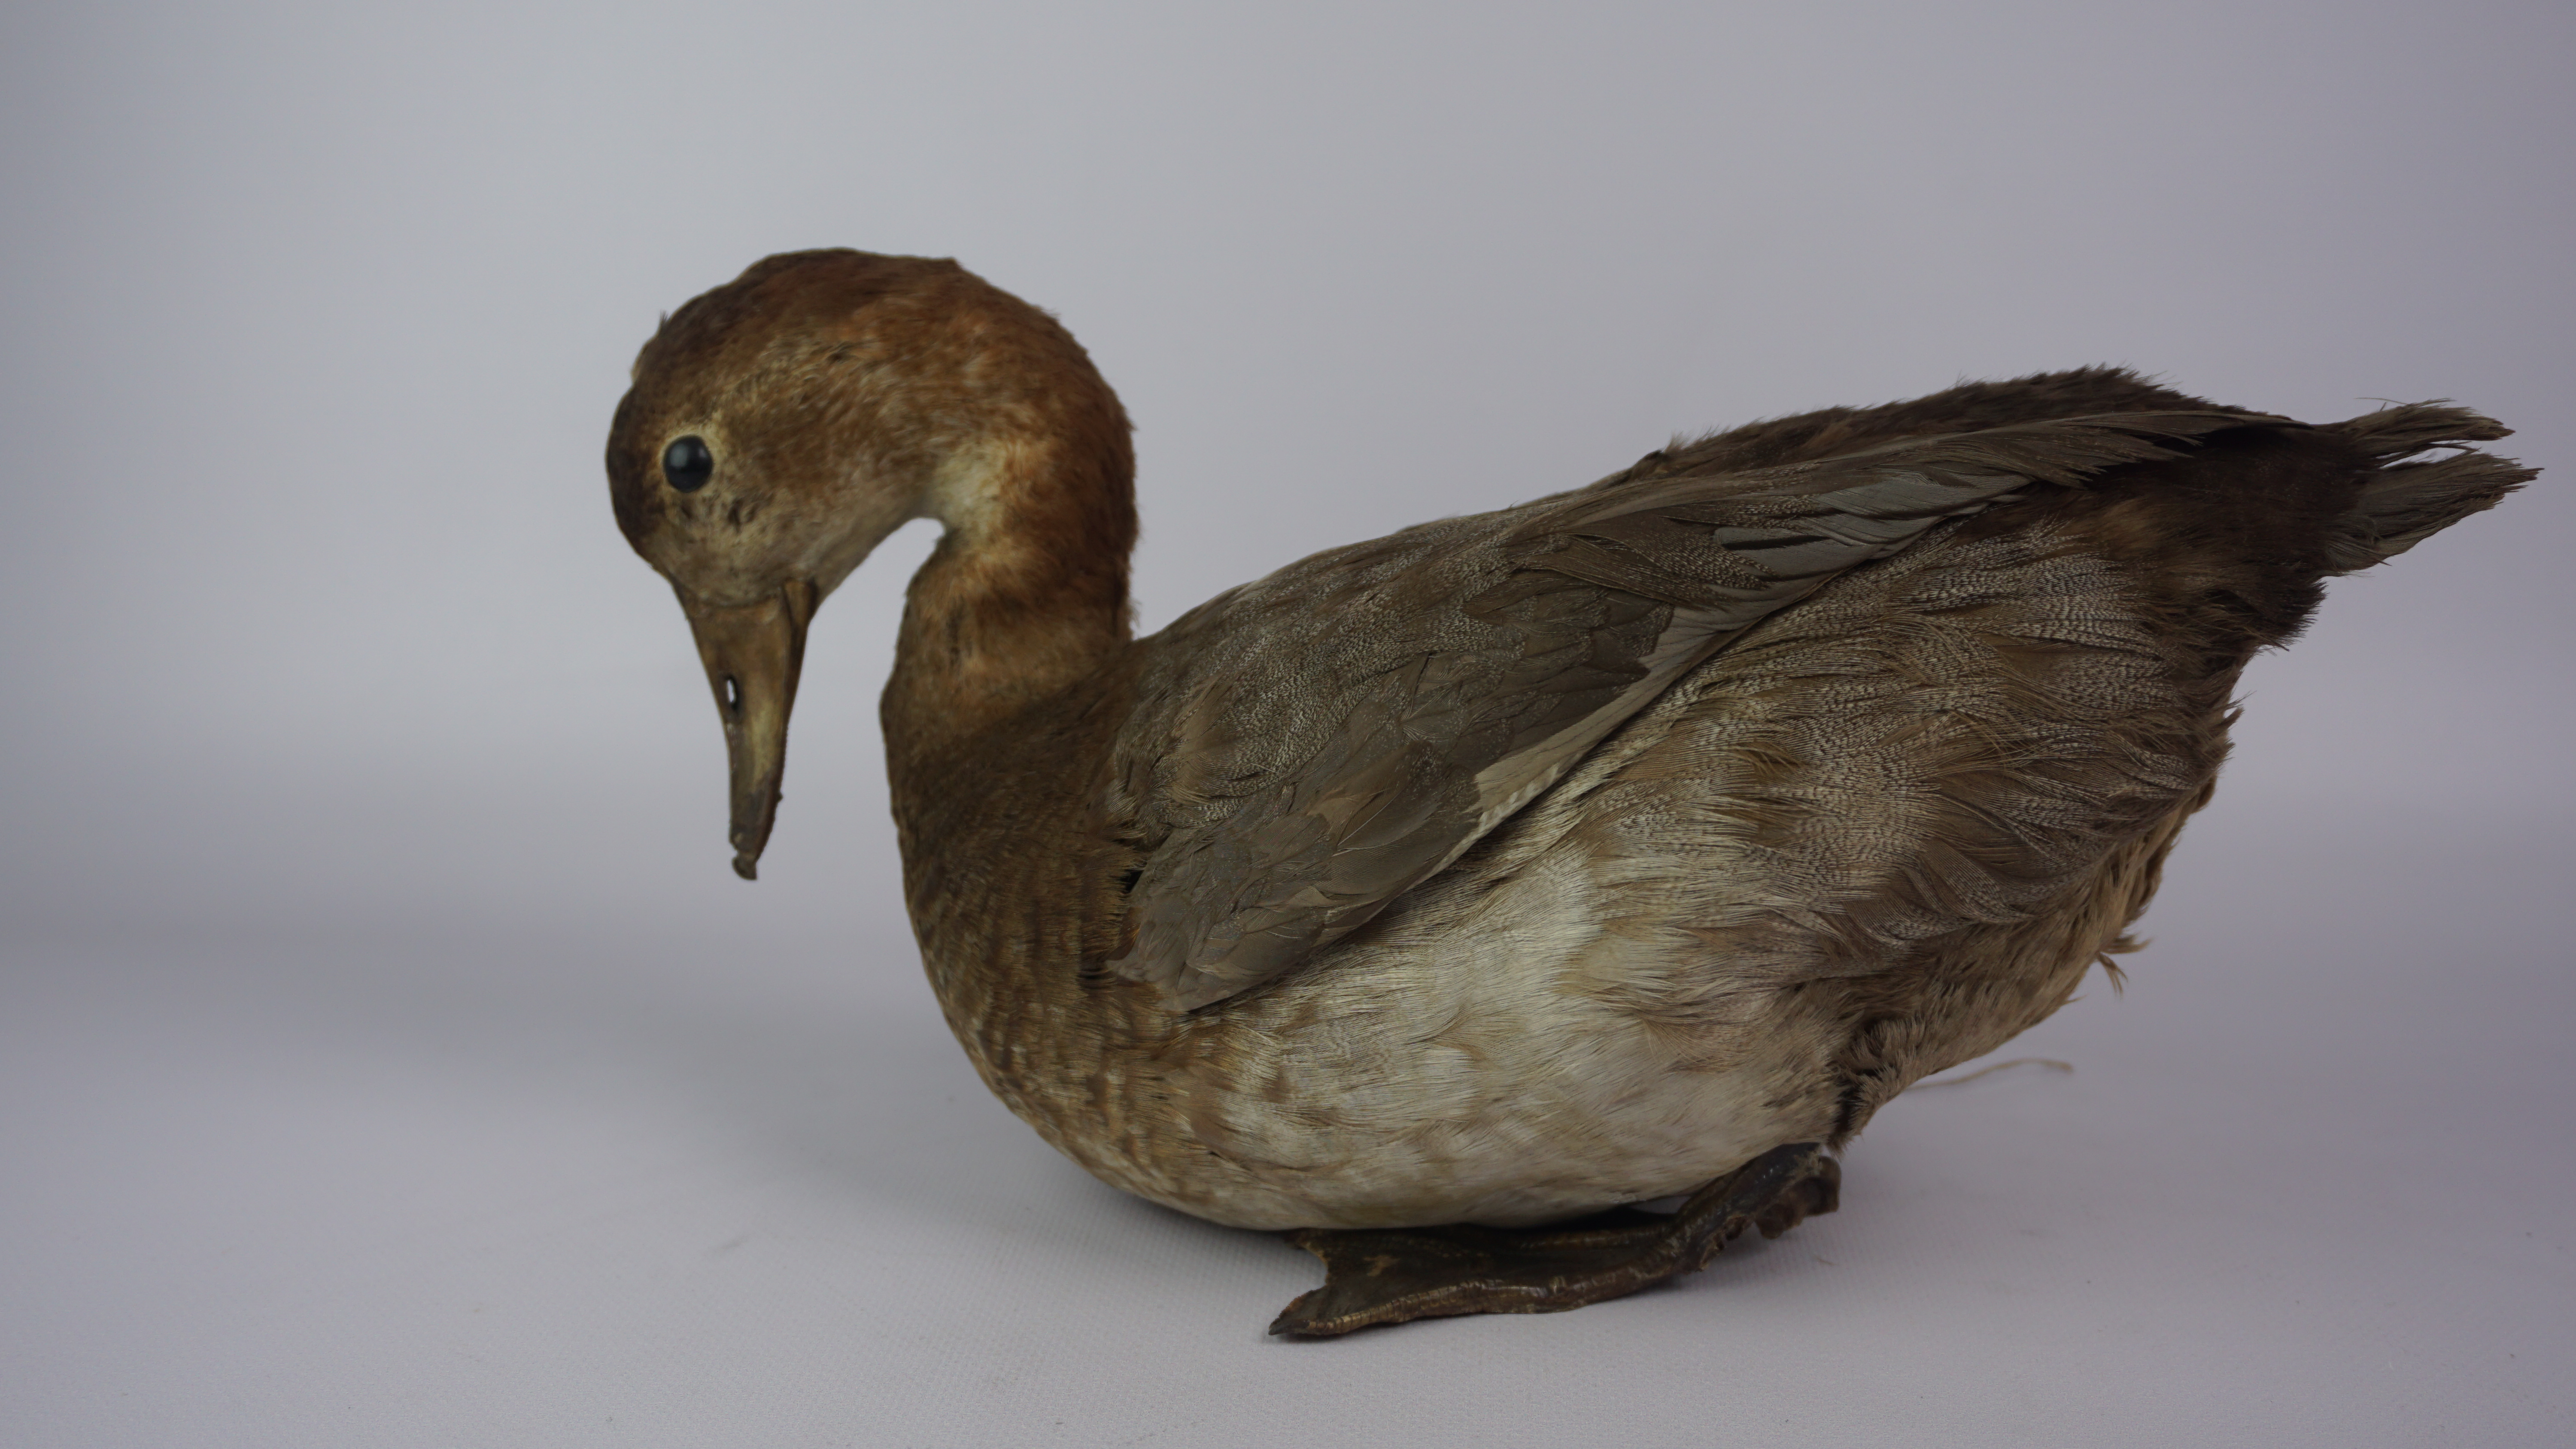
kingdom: Animalia
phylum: Chordata
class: Aves
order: Anseriformes
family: Anatidae
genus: Aythya
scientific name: Aythya ferina
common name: Common pochard
